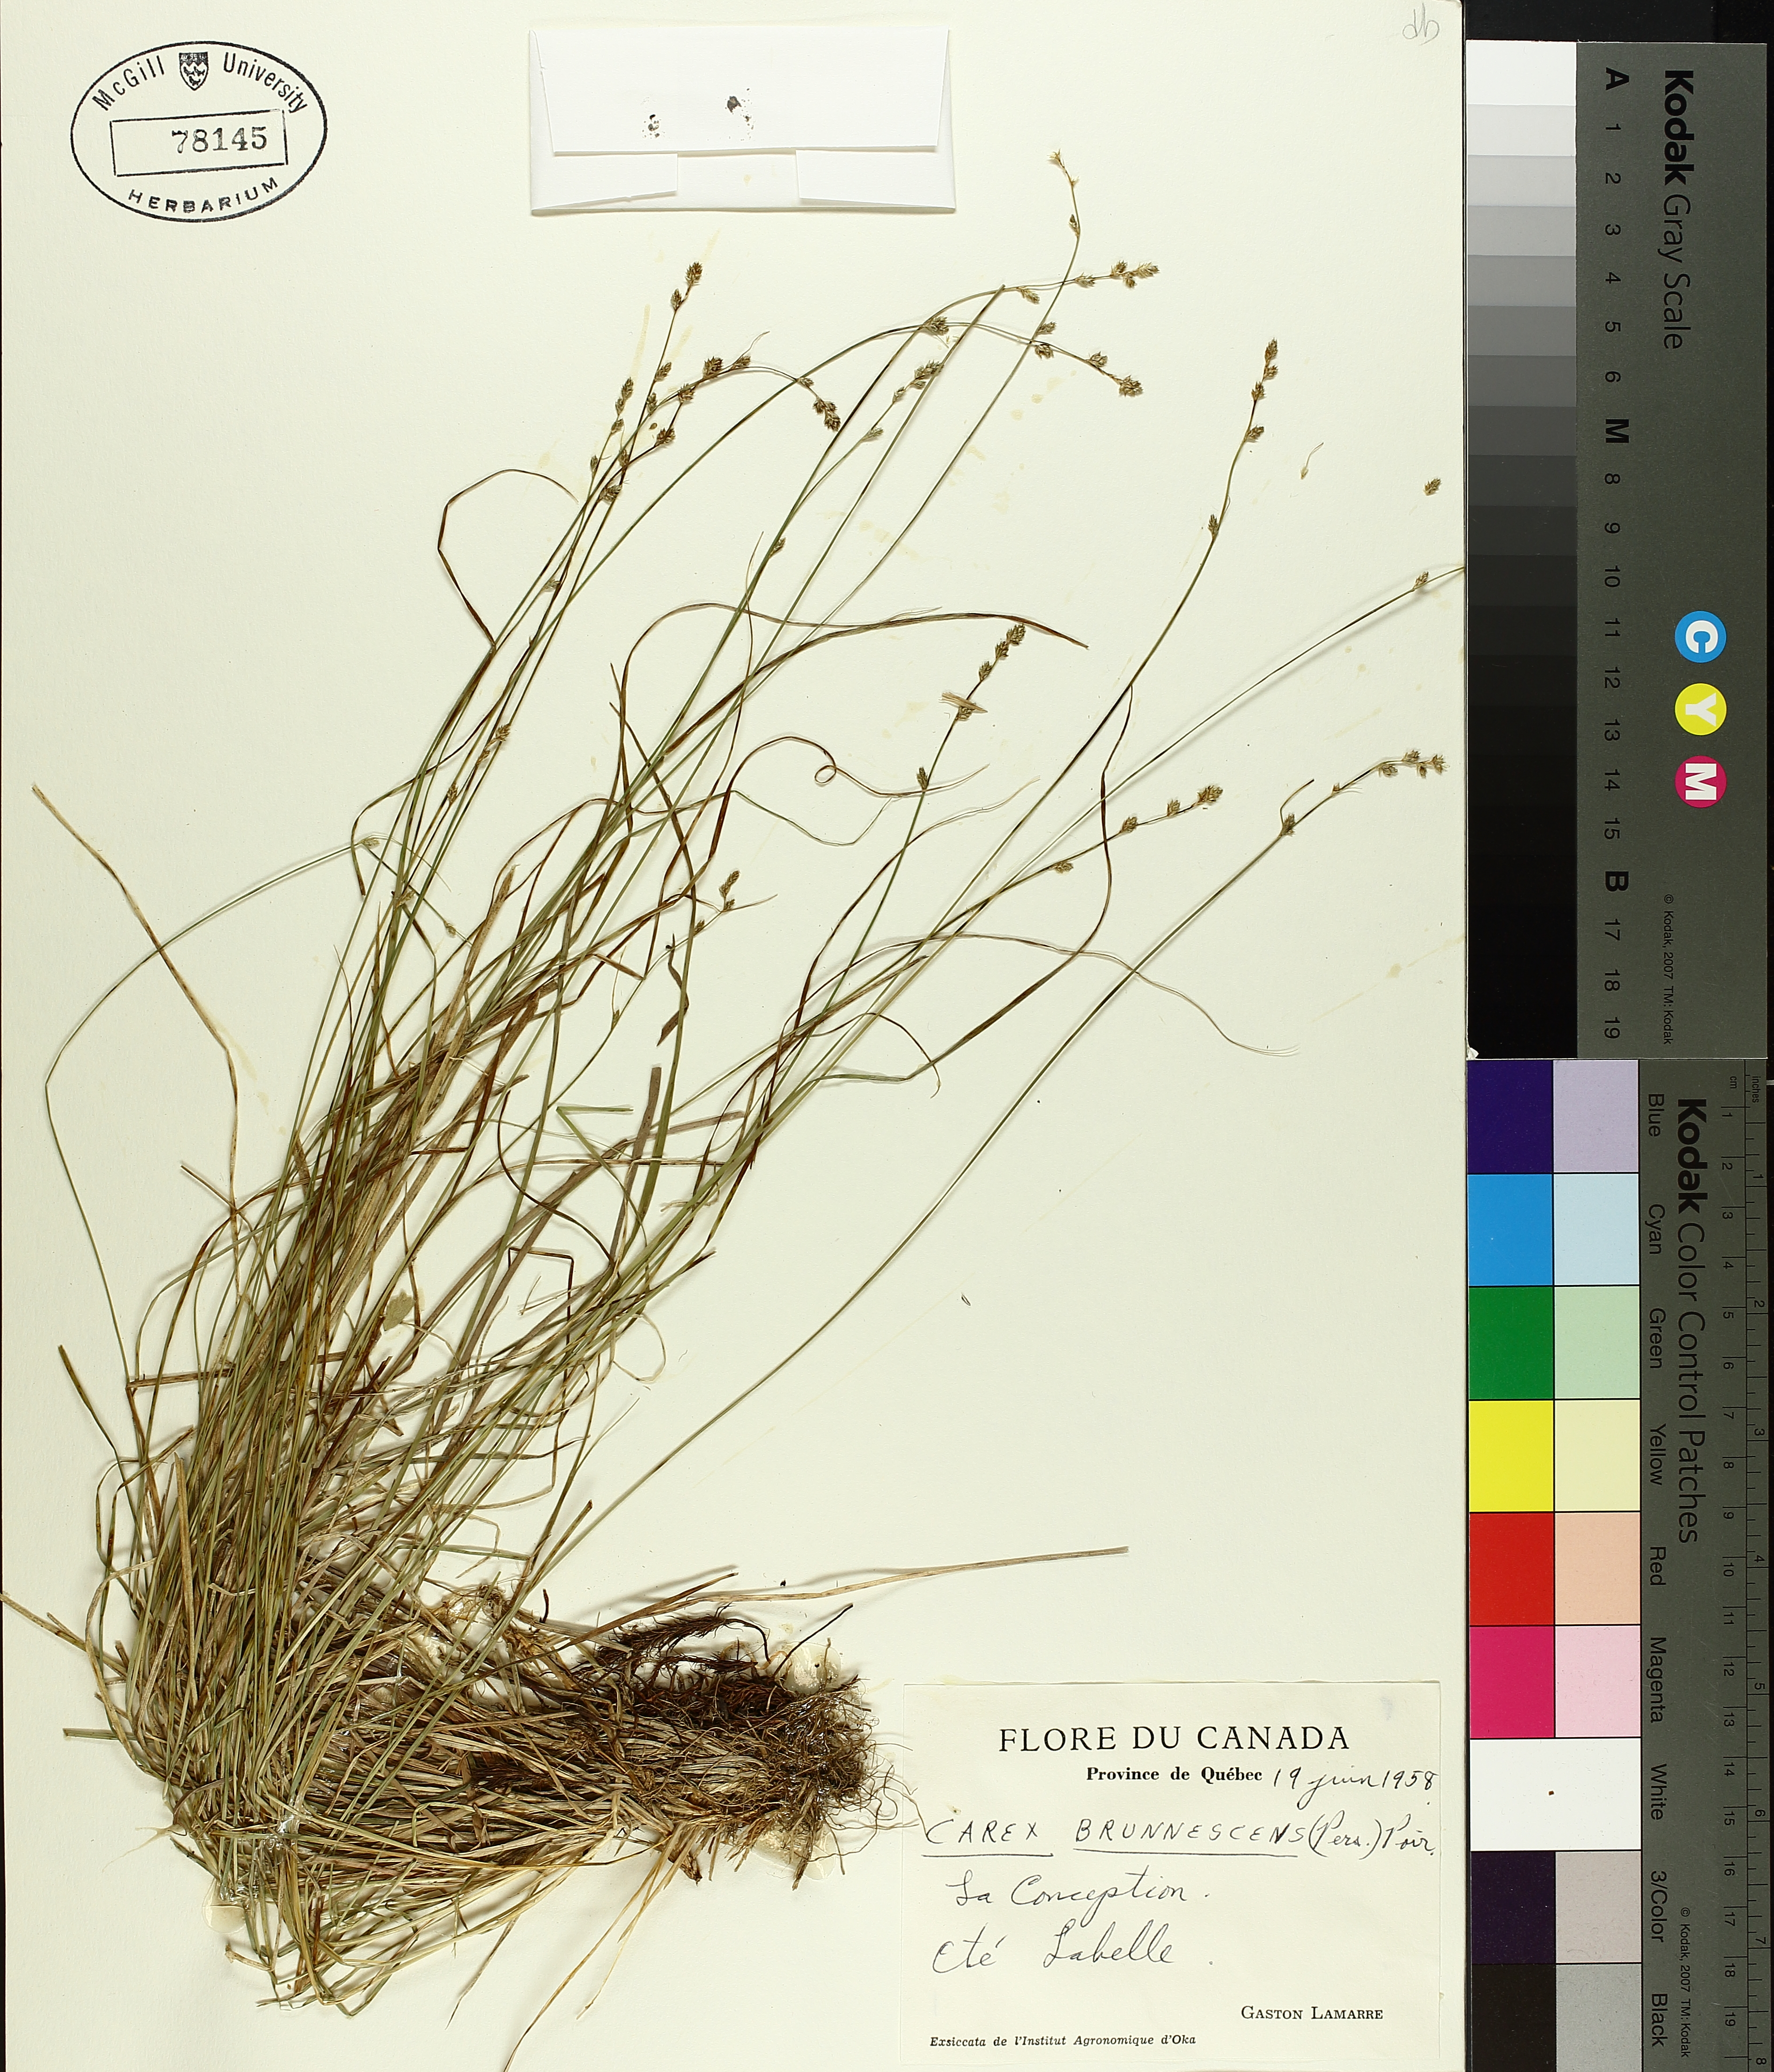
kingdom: Plantae
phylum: Tracheophyta
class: Liliopsida
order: Poales
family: Cyperaceae
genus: Carex
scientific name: Carex brunnescens
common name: Brown sedge
